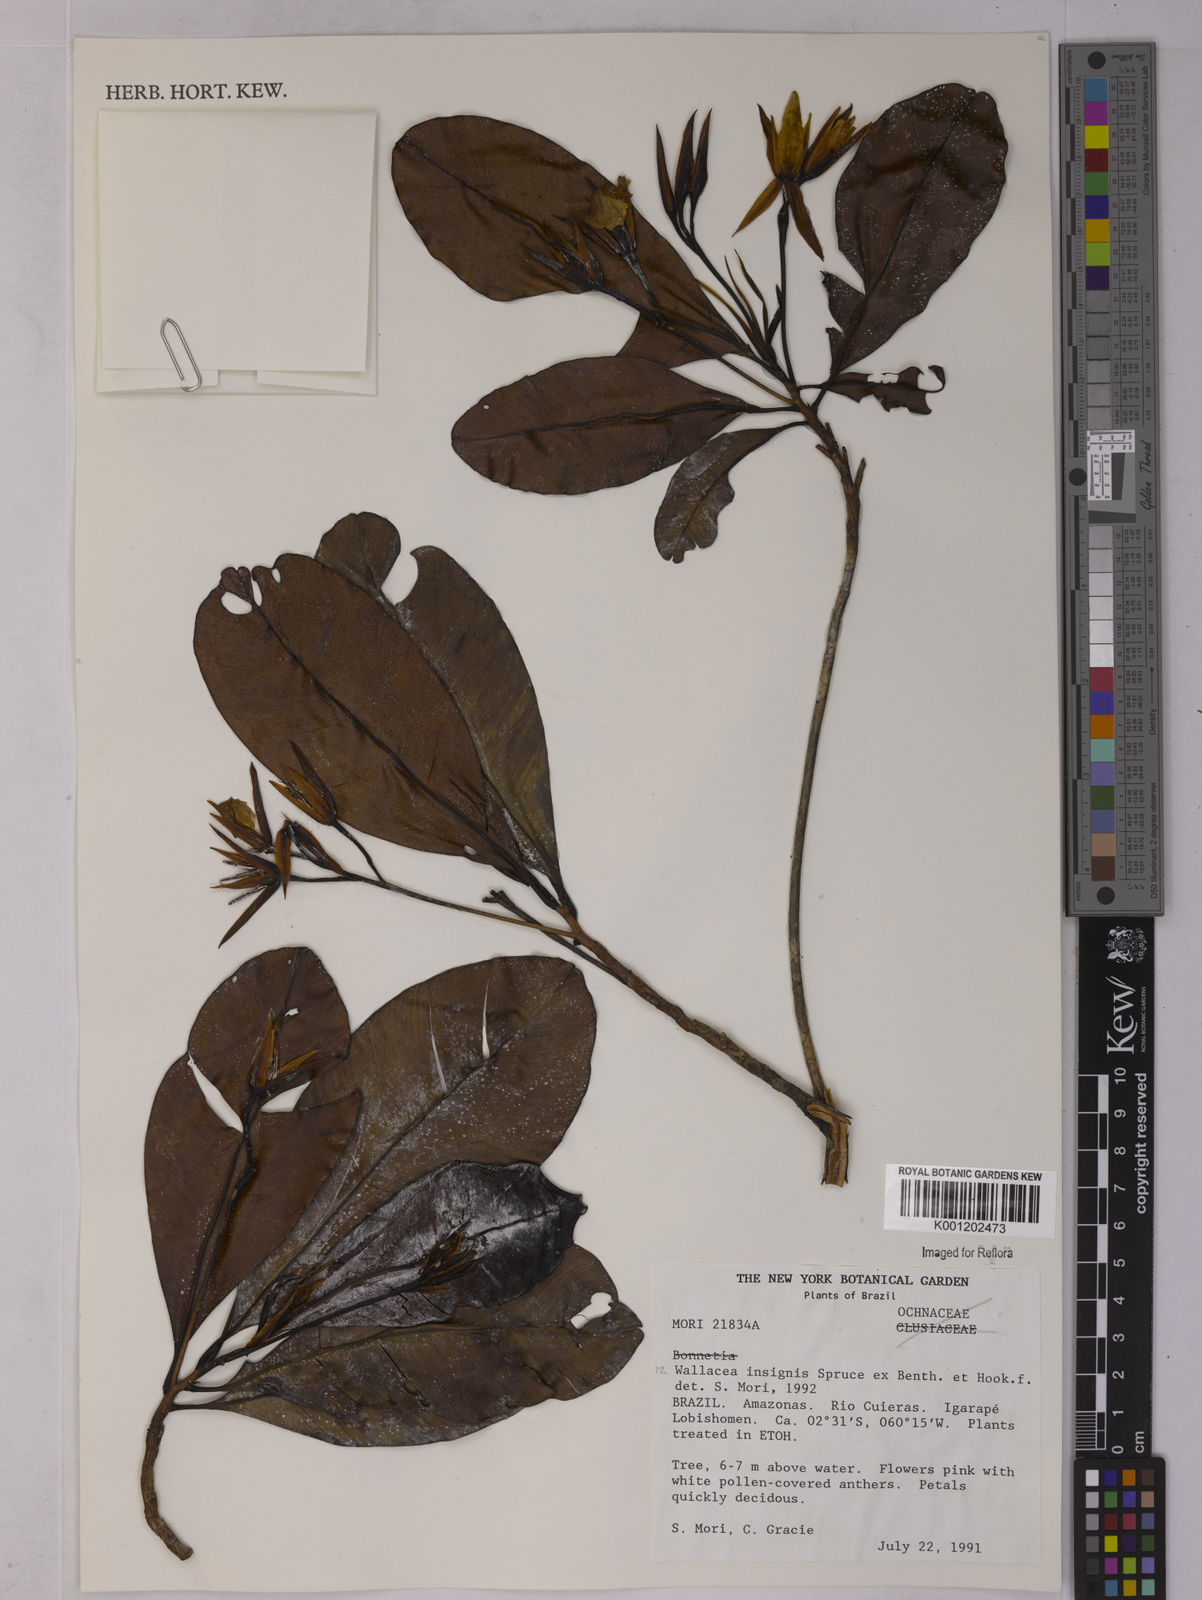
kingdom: Plantae
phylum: Tracheophyta
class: Magnoliopsida
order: Malpighiales
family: Ochnaceae
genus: Wallacea
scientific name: Wallacea insignis
